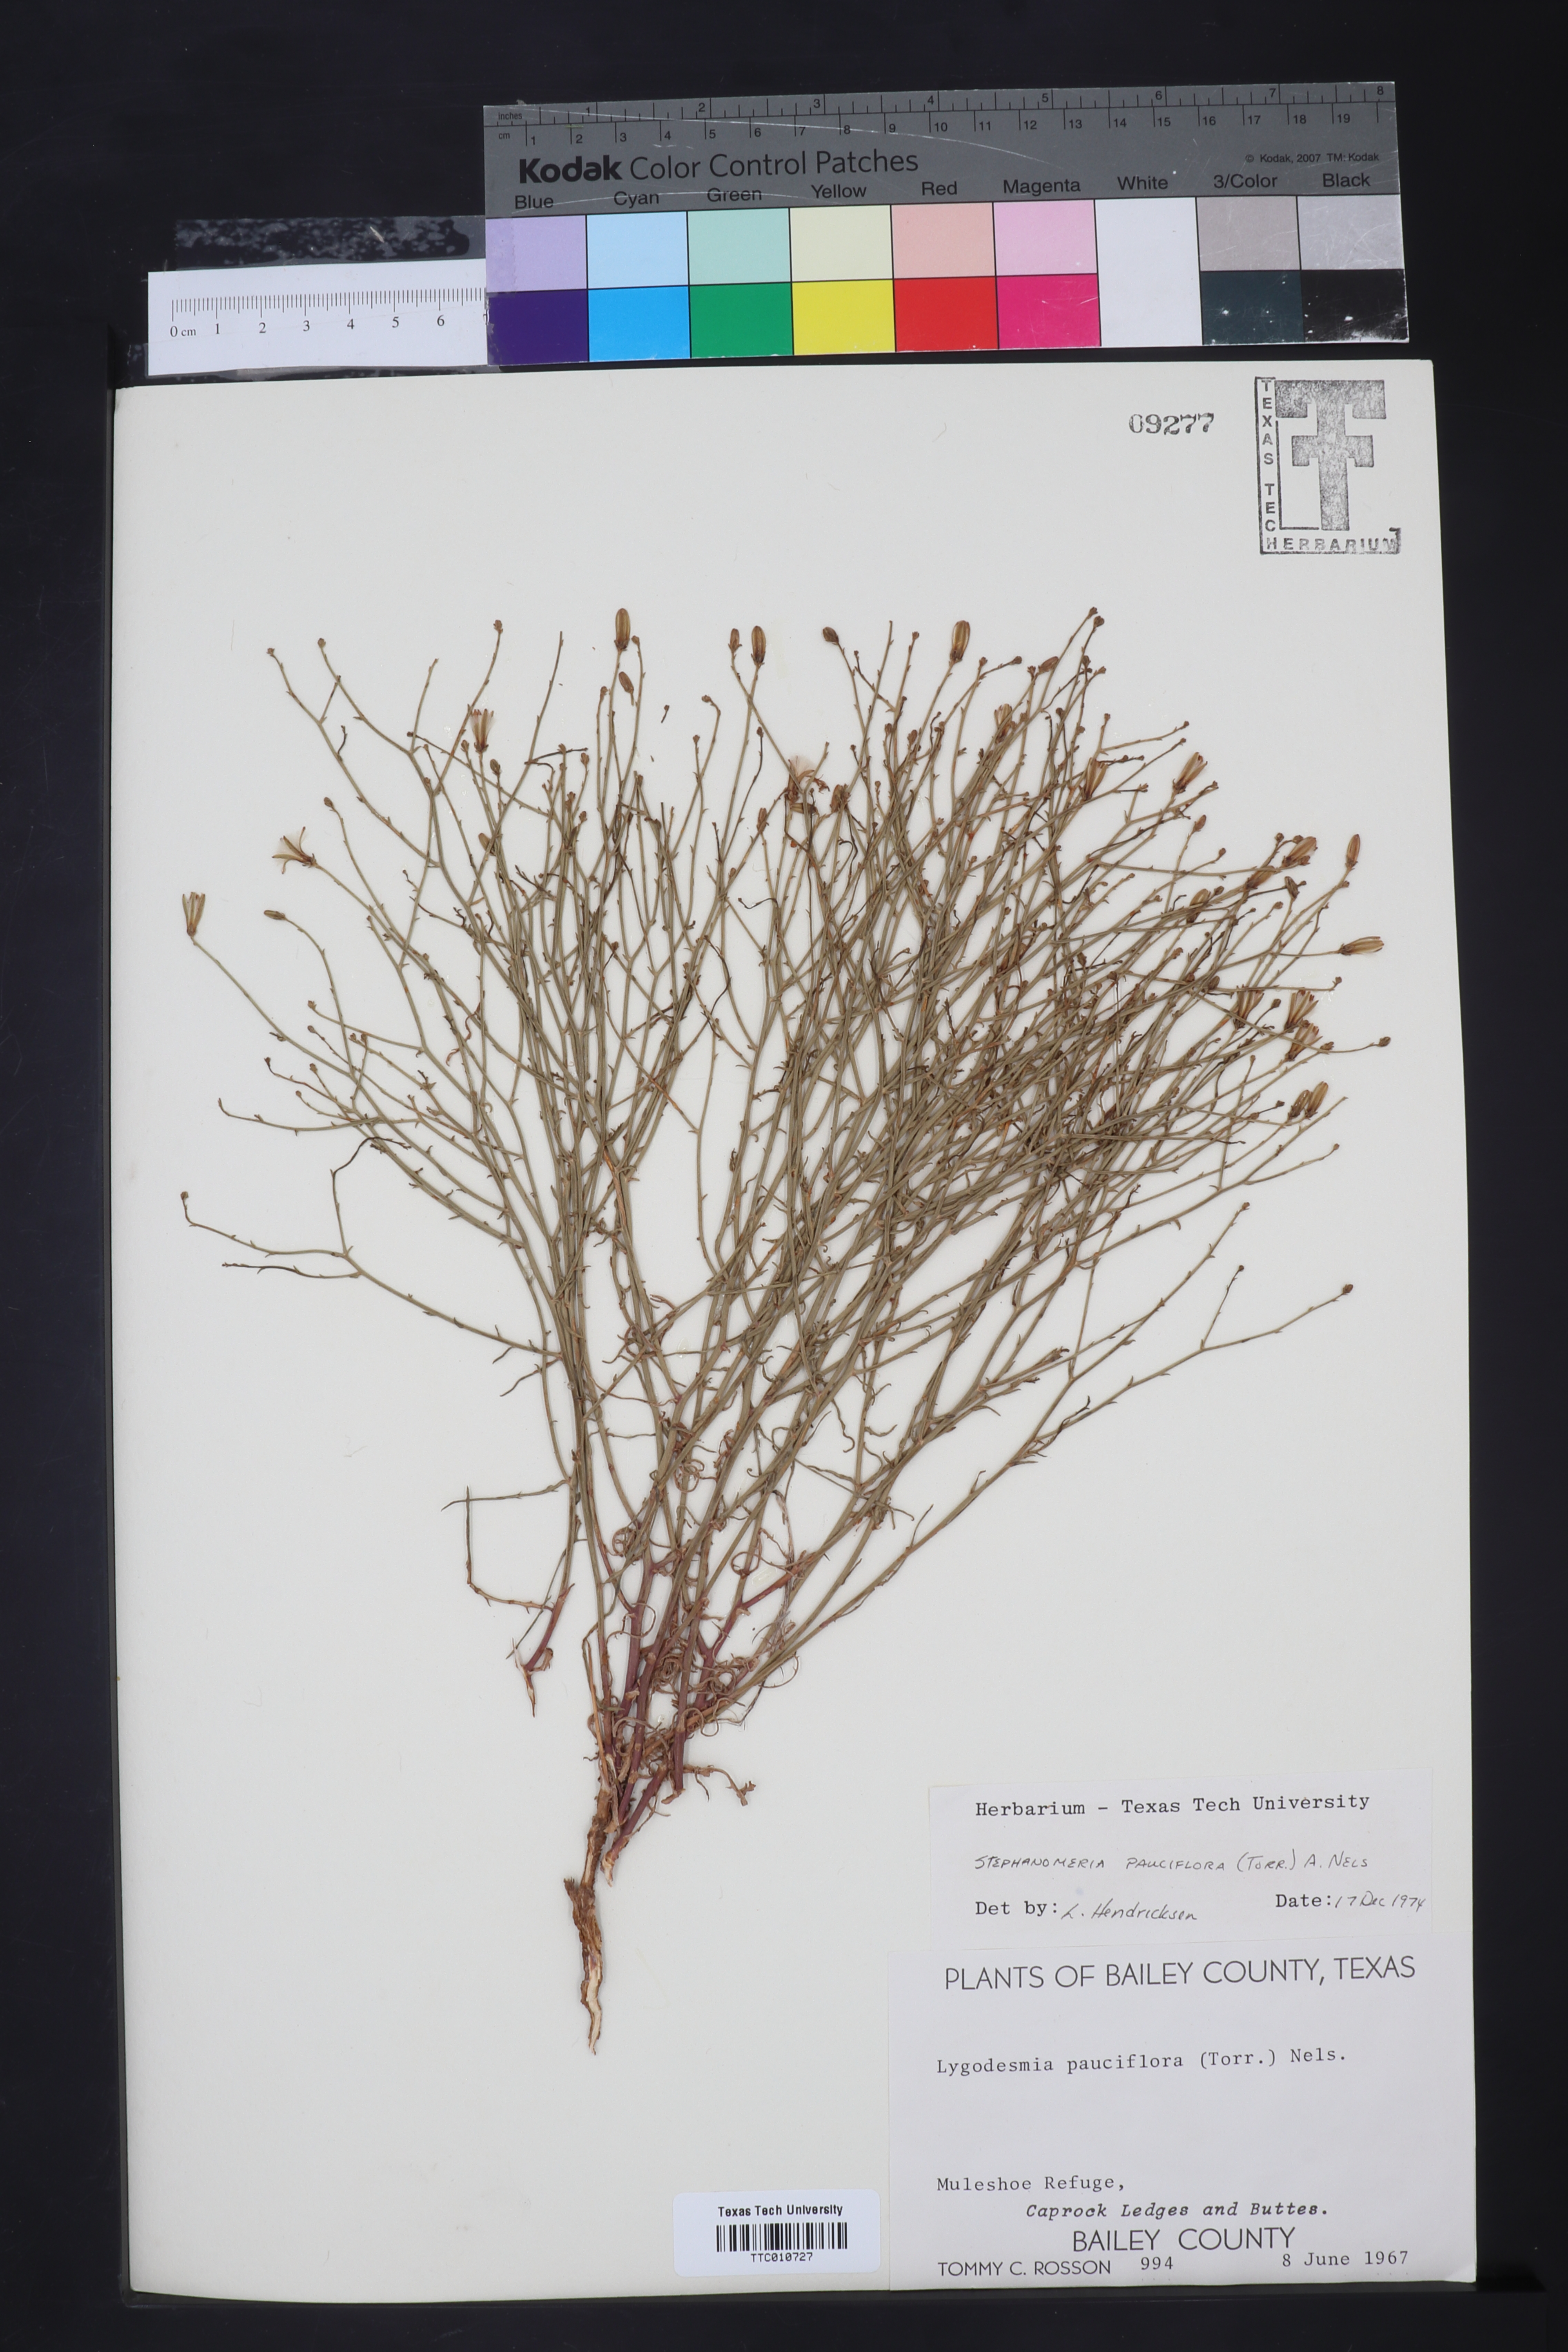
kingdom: Plantae
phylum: Tracheophyta
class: Magnoliopsida
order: Asterales
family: Asteraceae
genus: Stephanomeria
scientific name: Stephanomeria pauciflora
